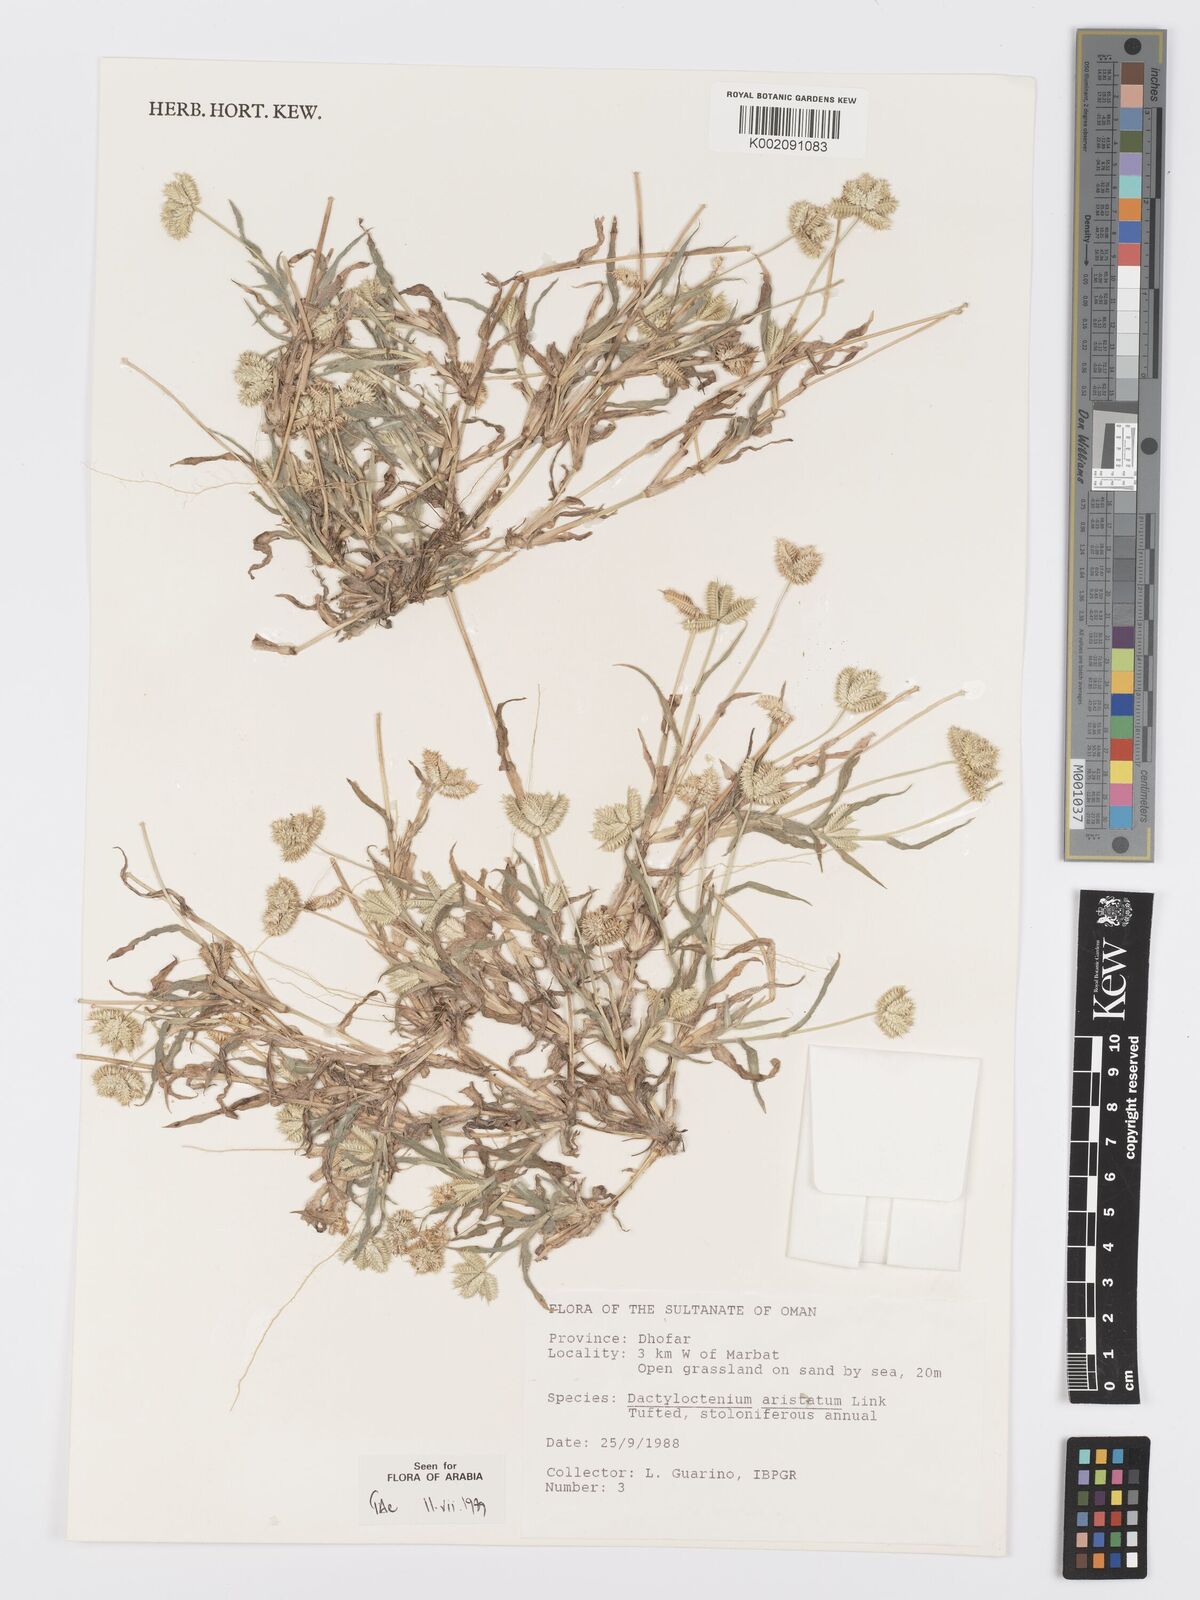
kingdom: Plantae
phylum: Tracheophyta
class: Liliopsida
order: Poales
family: Poaceae
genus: Dactyloctenium
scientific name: Dactyloctenium aristatum
